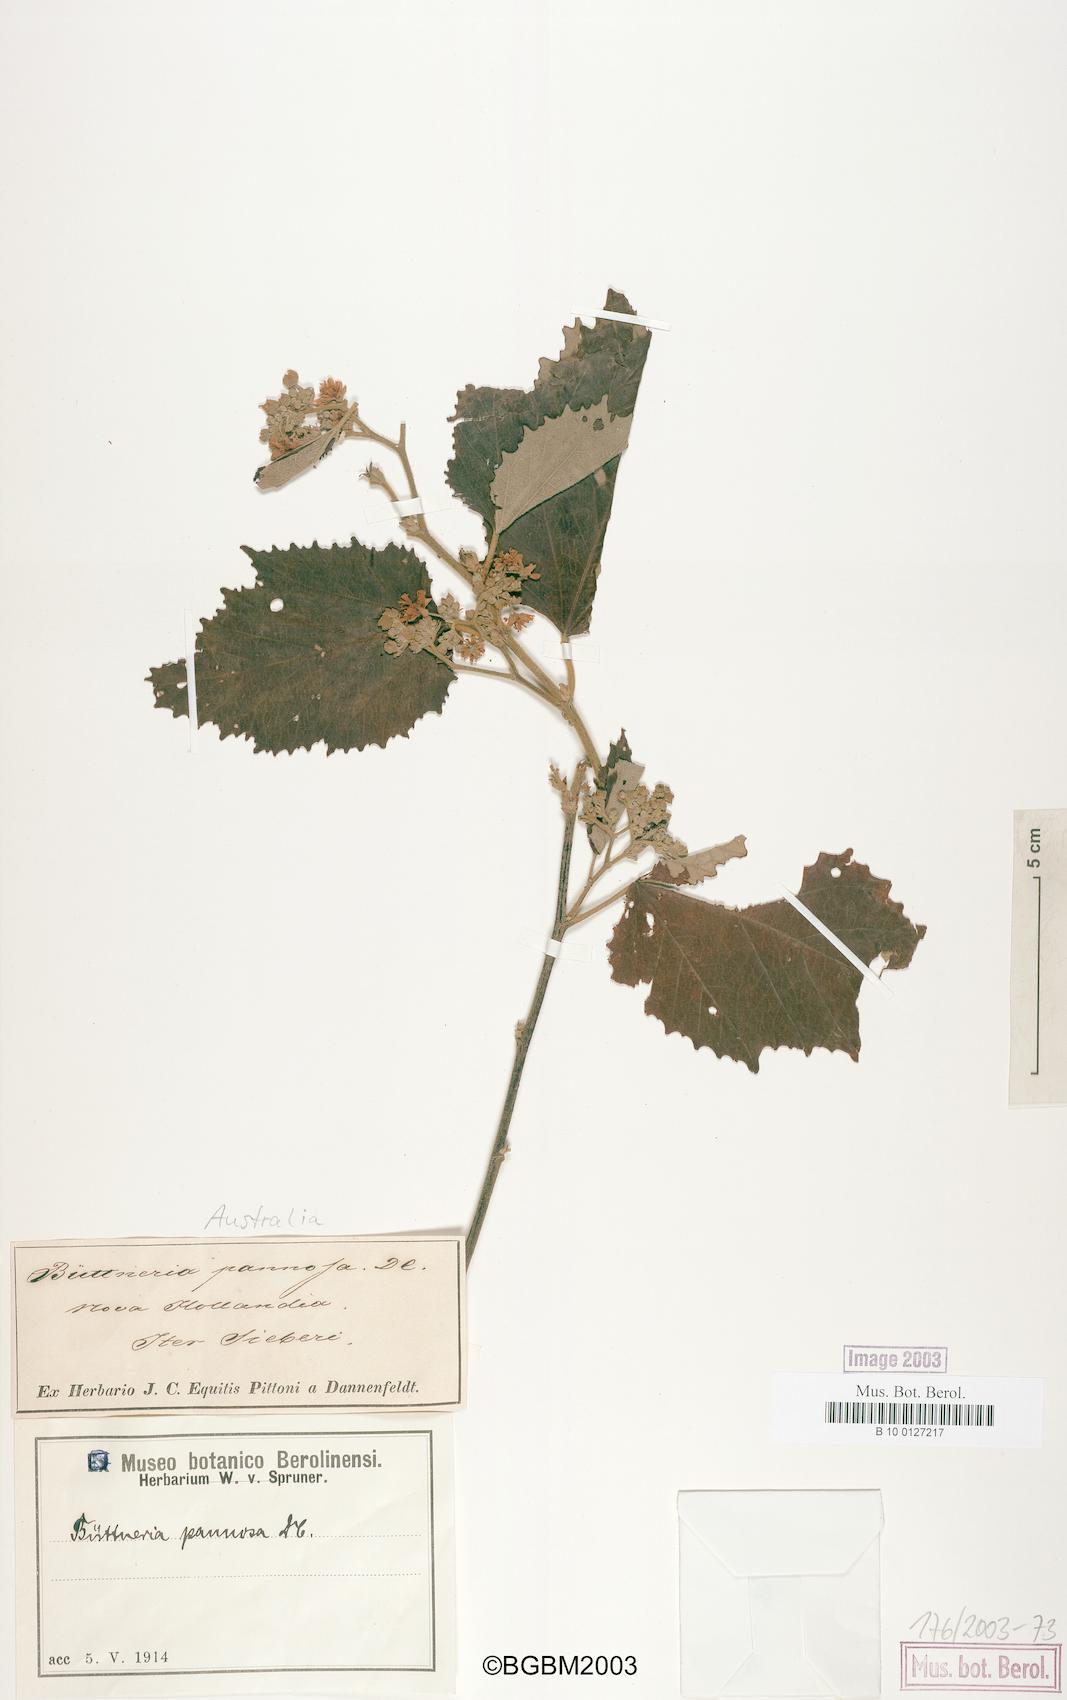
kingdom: Plantae
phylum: Tracheophyta
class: Magnoliopsida
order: Malvales
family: Malvaceae
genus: Seringia
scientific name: Seringia hookeriana
